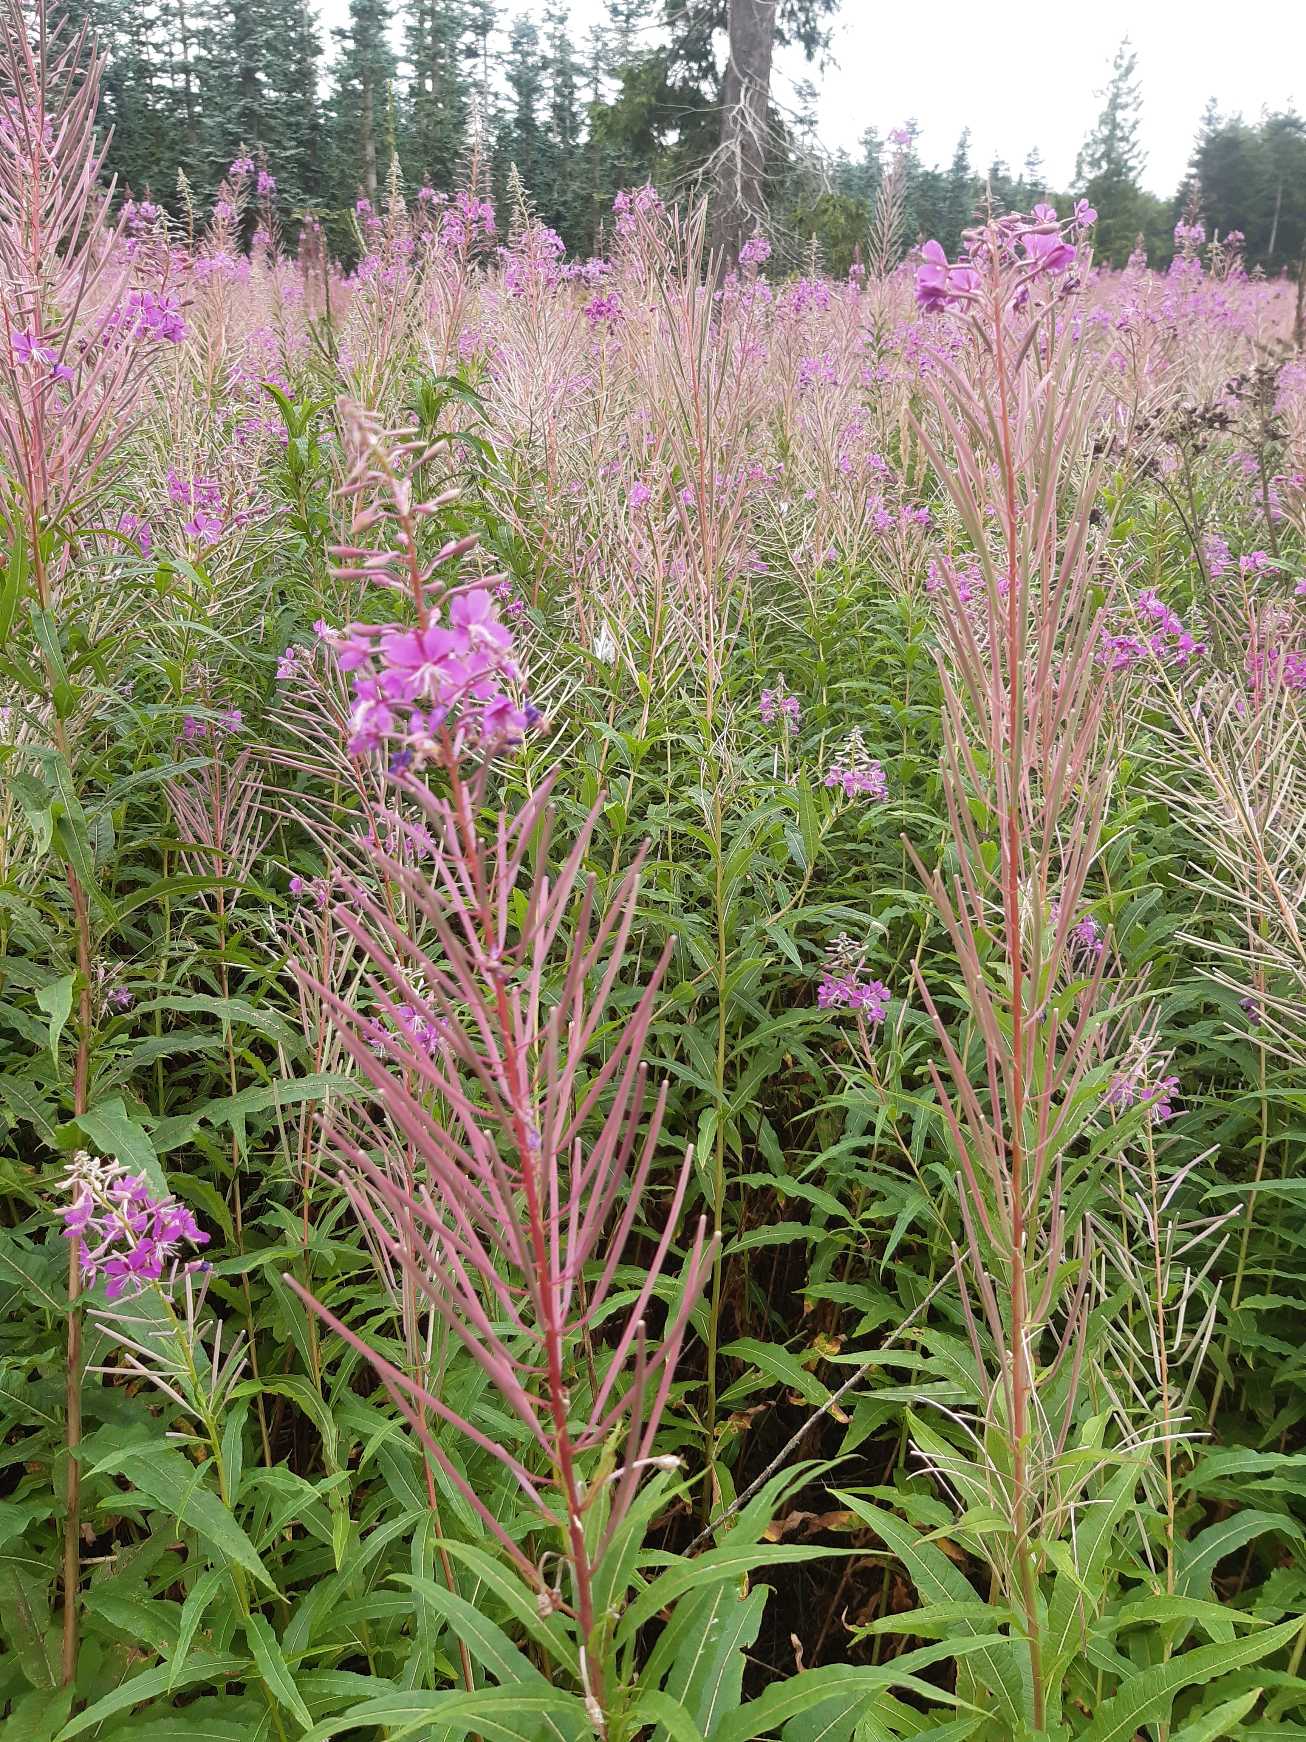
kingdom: Plantae
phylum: Tracheophyta
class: Magnoliopsida
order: Myrtales
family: Onagraceae
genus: Chamaenerion
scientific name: Chamaenerion angustifolium
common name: Gederams
